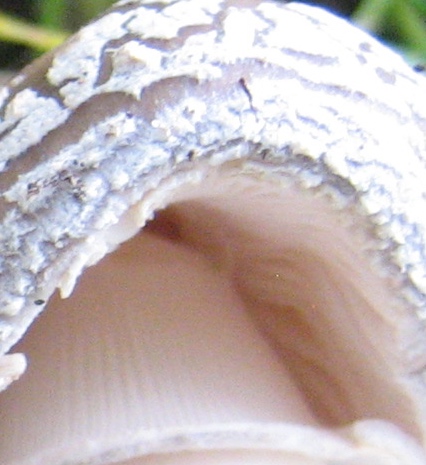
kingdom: Fungi
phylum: Basidiomycota
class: Agaricomycetes
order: Agaricales
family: Amanitaceae
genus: Amanita
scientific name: Amanita
